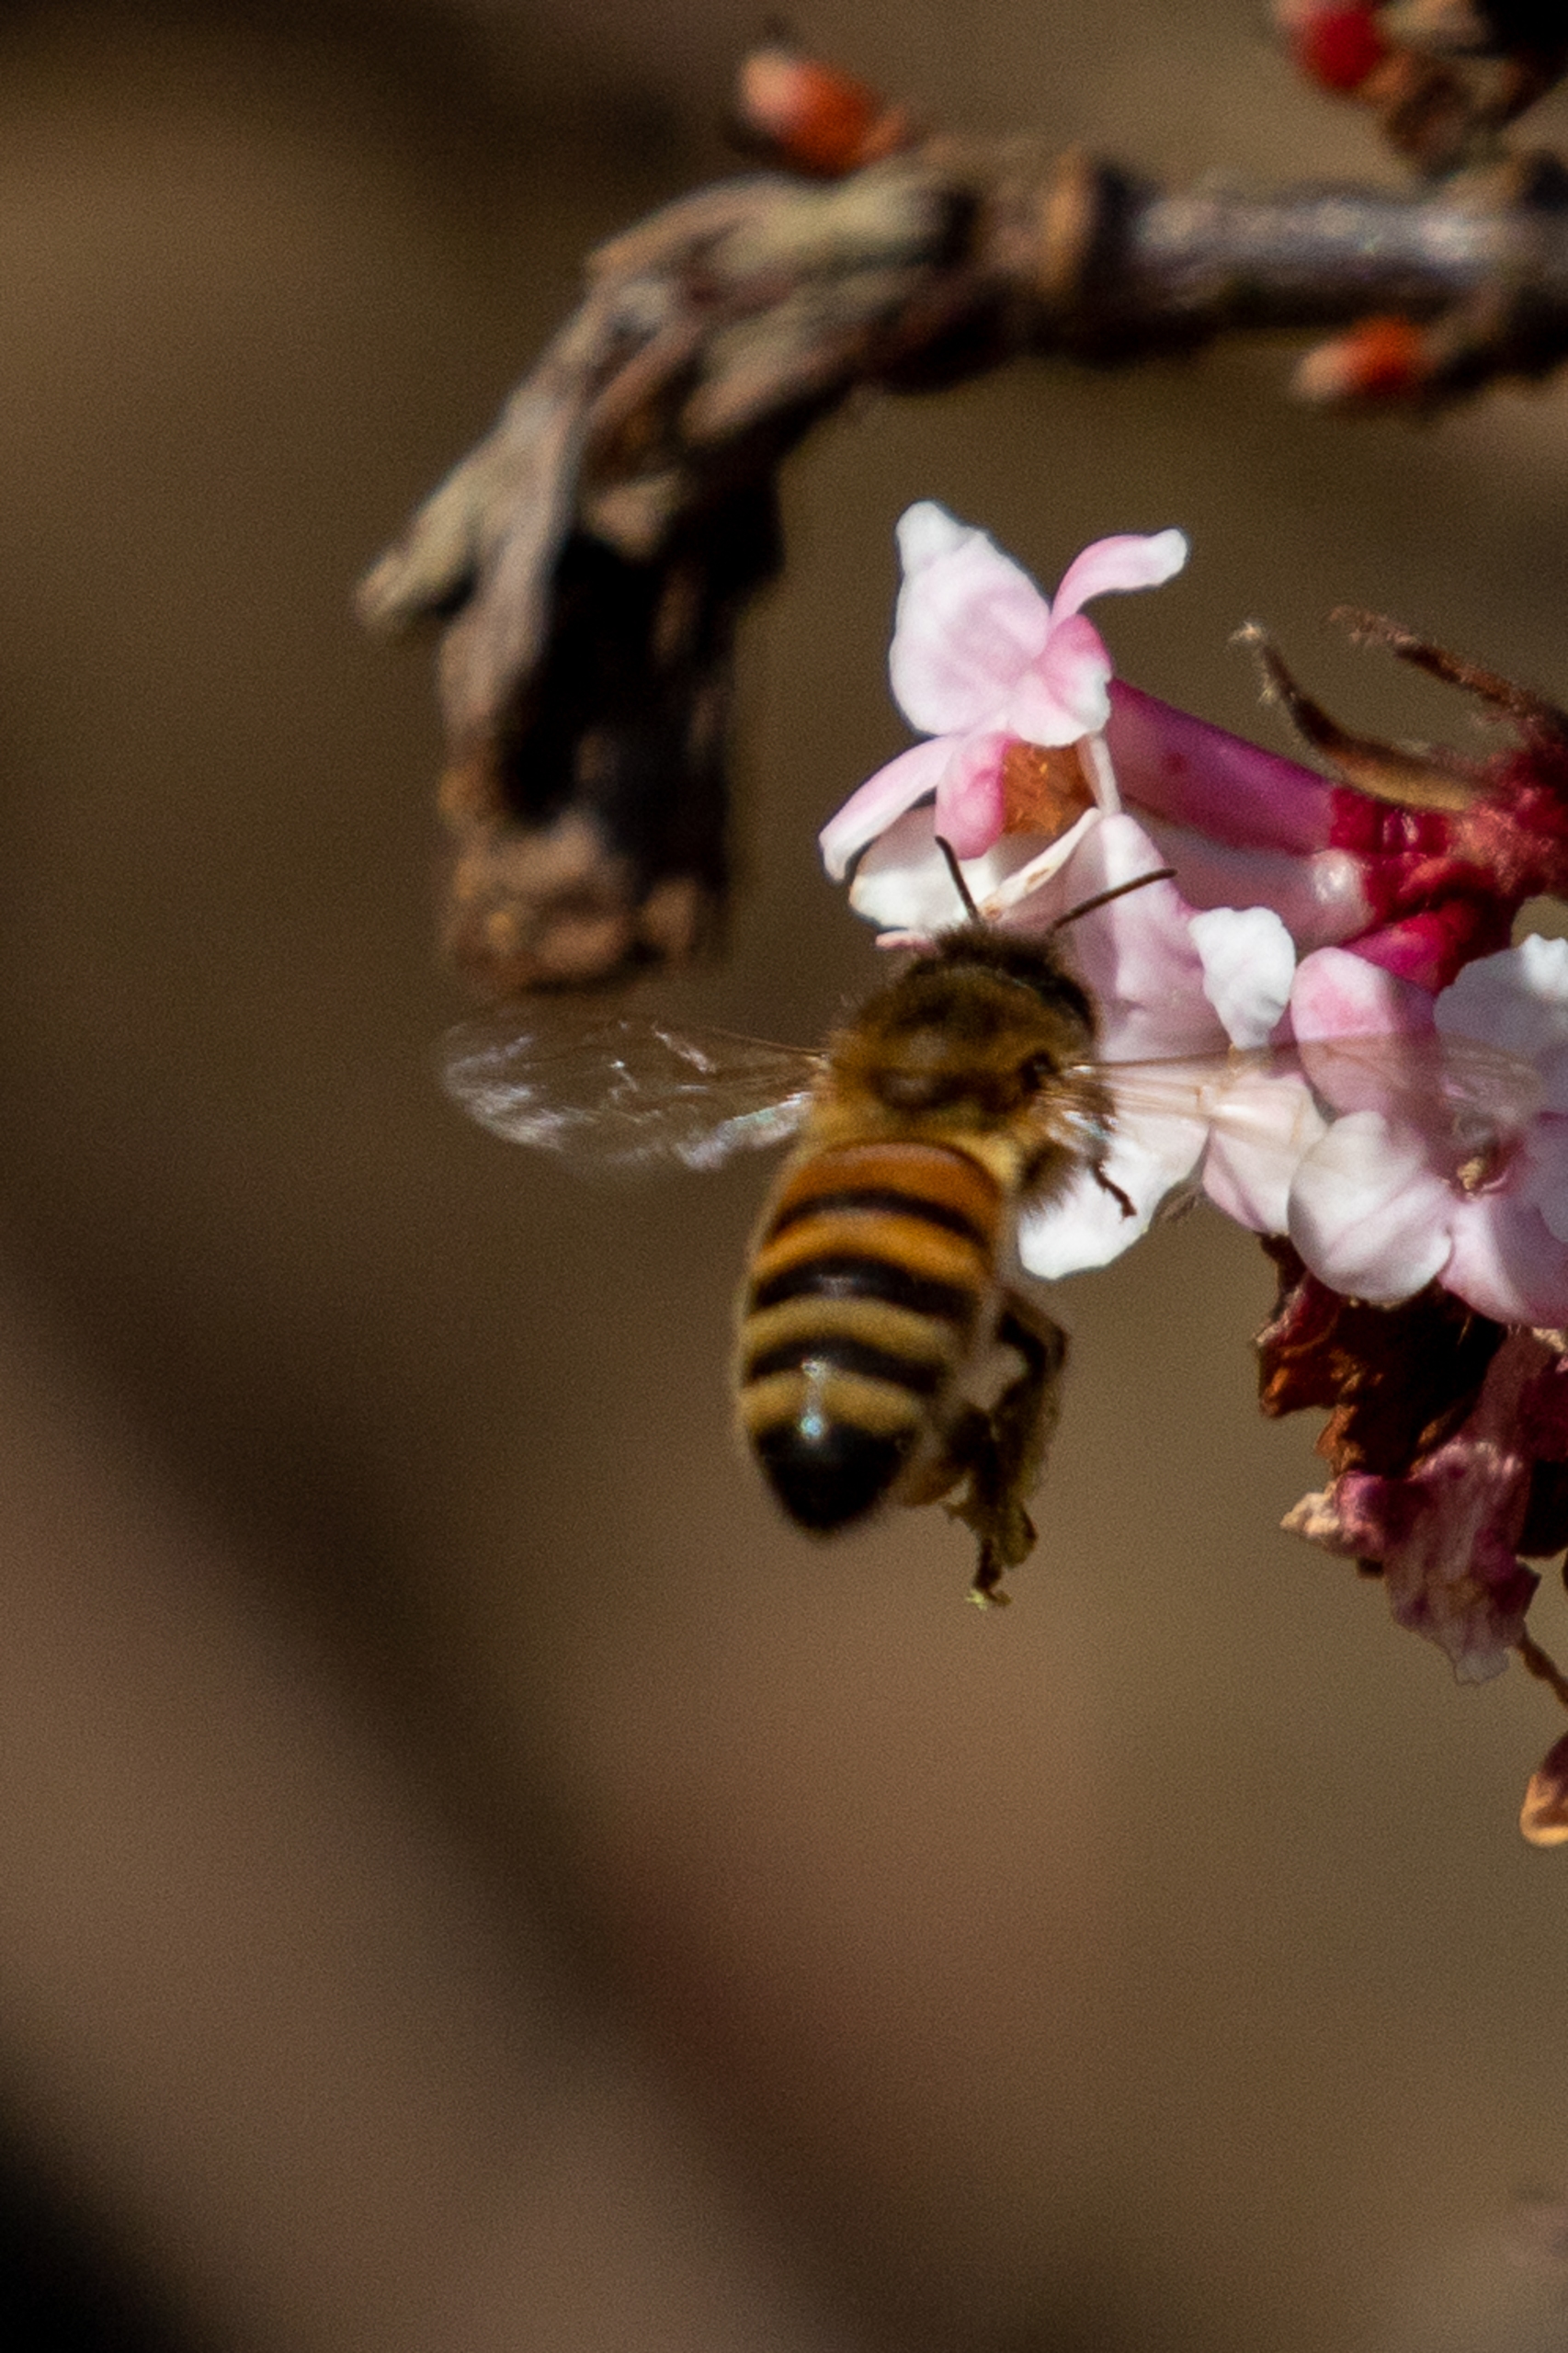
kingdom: Animalia
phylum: Arthropoda
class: Insecta
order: Hymenoptera
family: Apidae
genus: Apis
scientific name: Apis mellifera
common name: Honningbi
